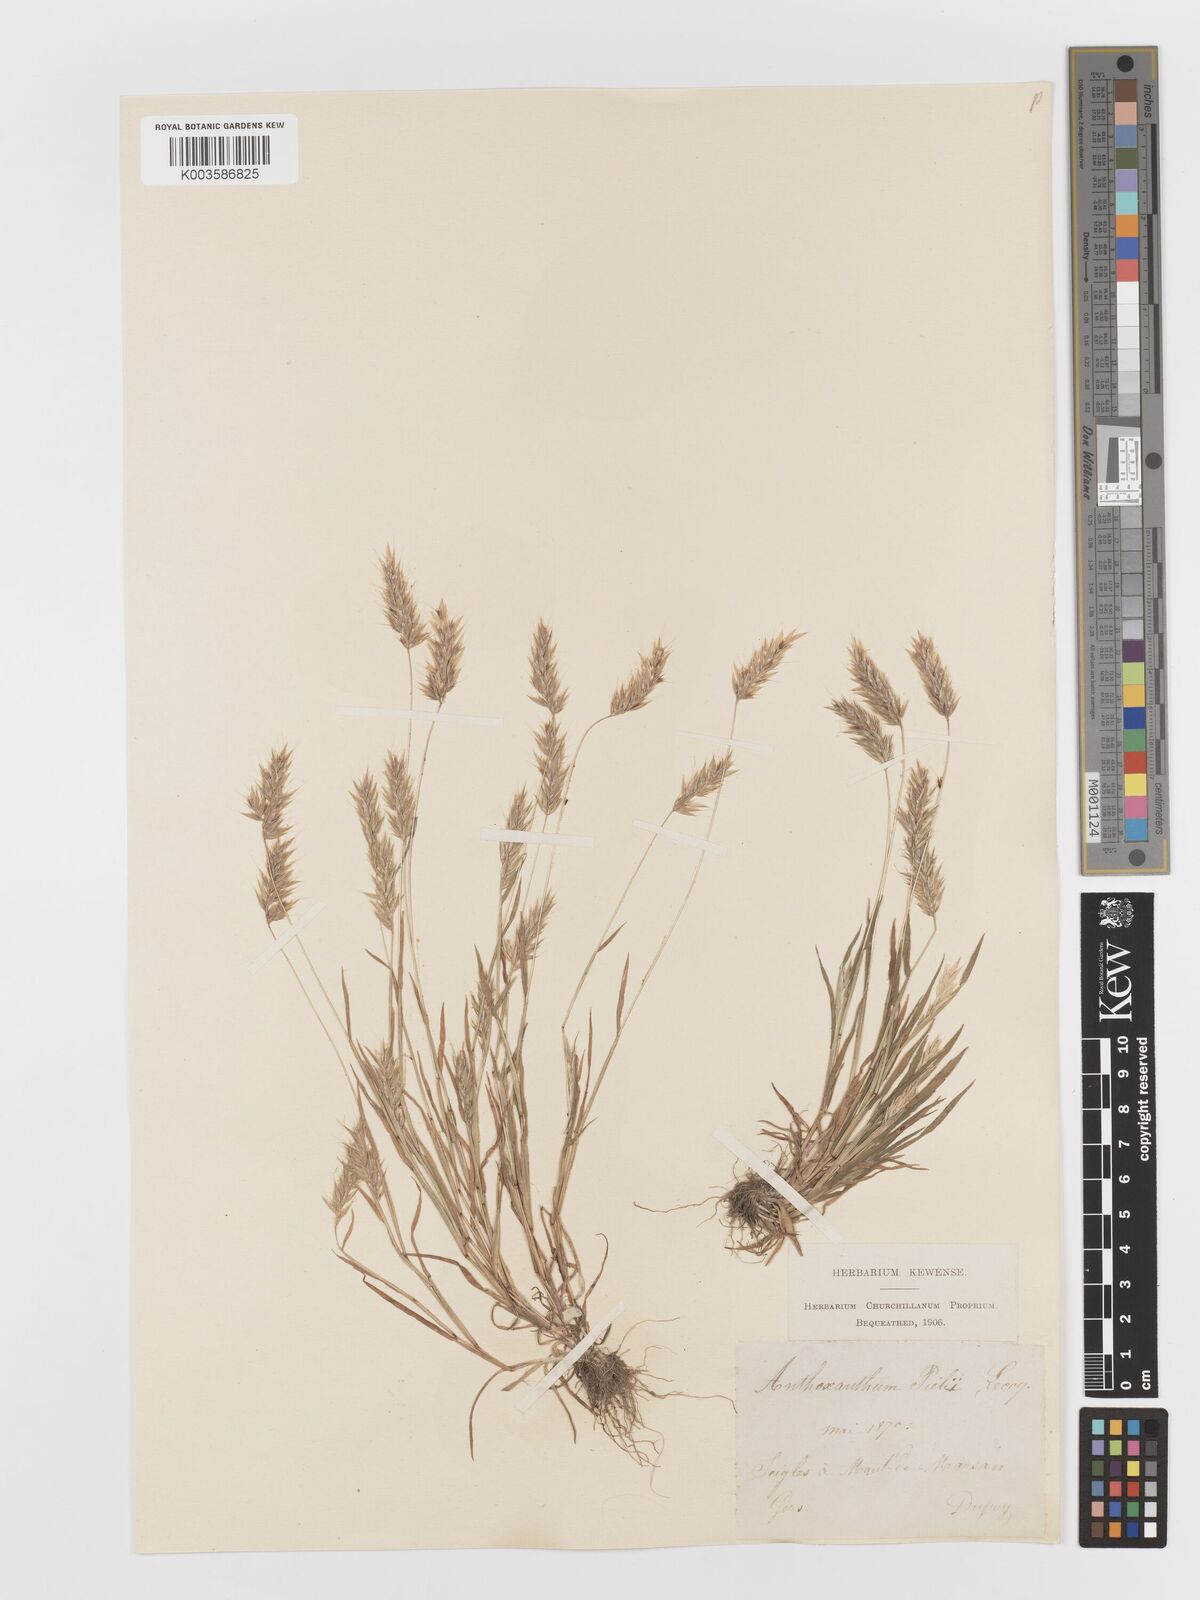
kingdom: Plantae
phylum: Tracheophyta
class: Liliopsida
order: Poales
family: Poaceae
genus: Anthoxanthum
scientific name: Anthoxanthum
